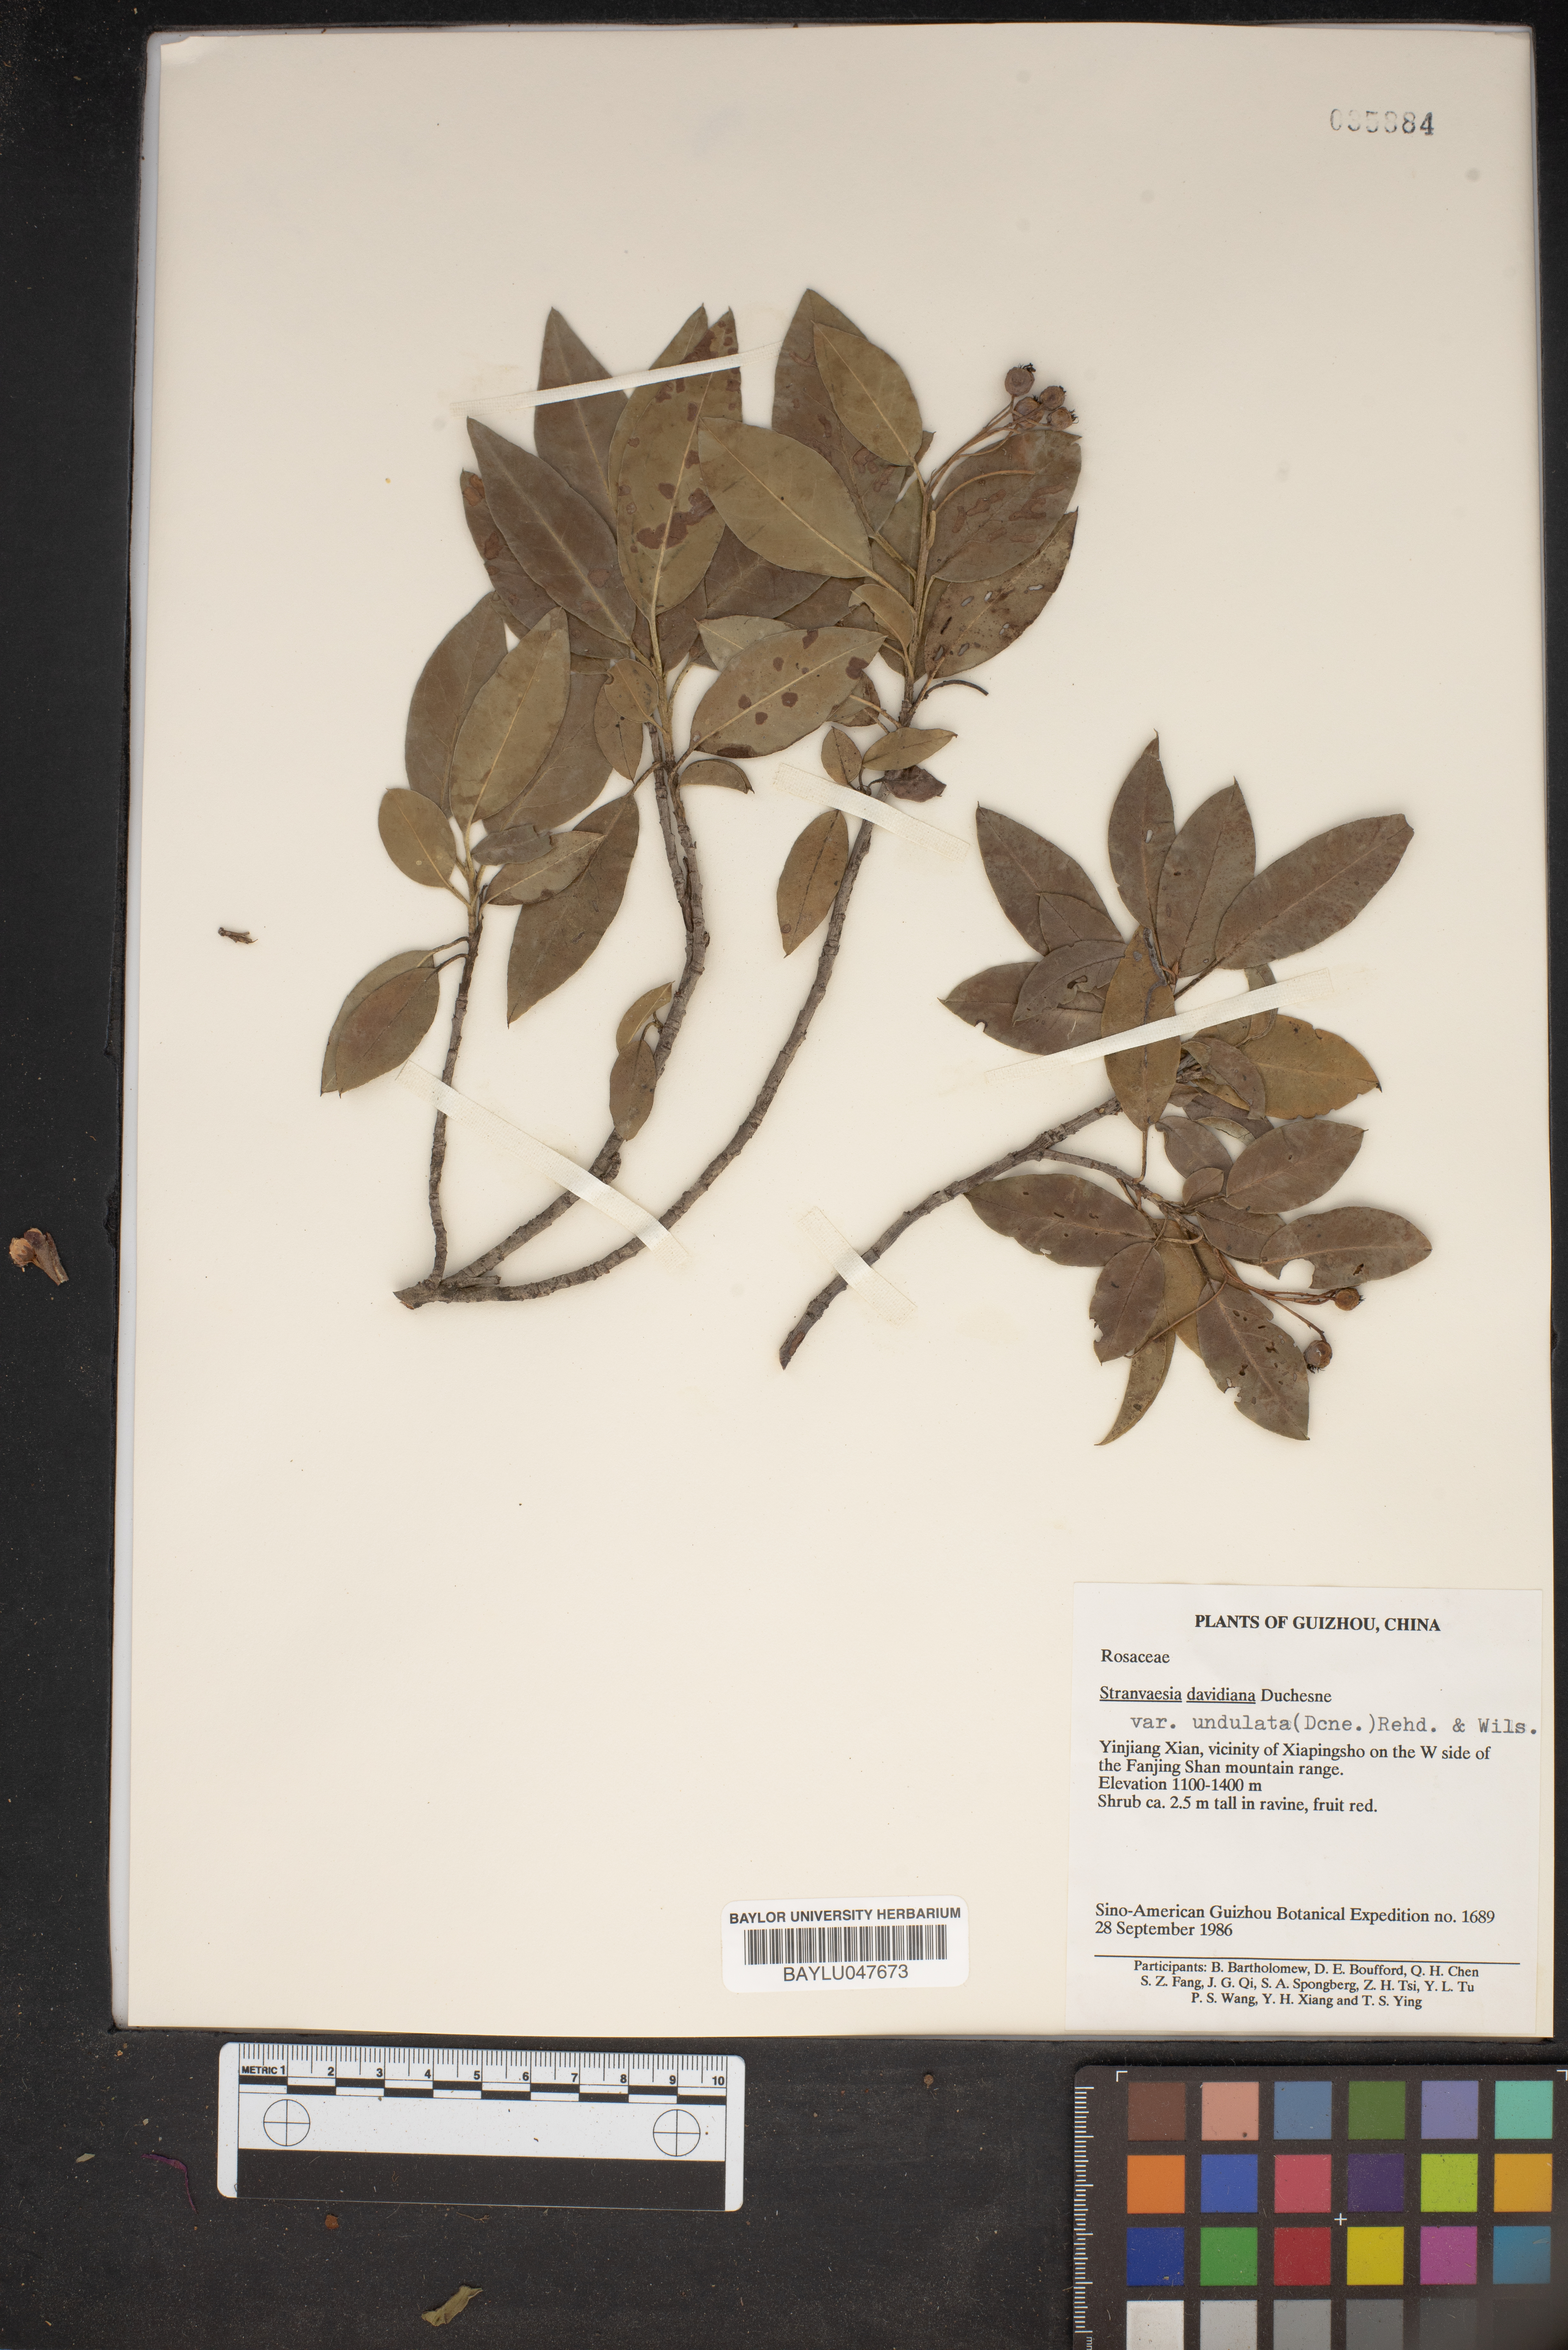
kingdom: Plantae
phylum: Tracheophyta
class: Magnoliopsida
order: Rosales
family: Rosaceae
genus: Stranvaesia
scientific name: Stranvaesia undulata
